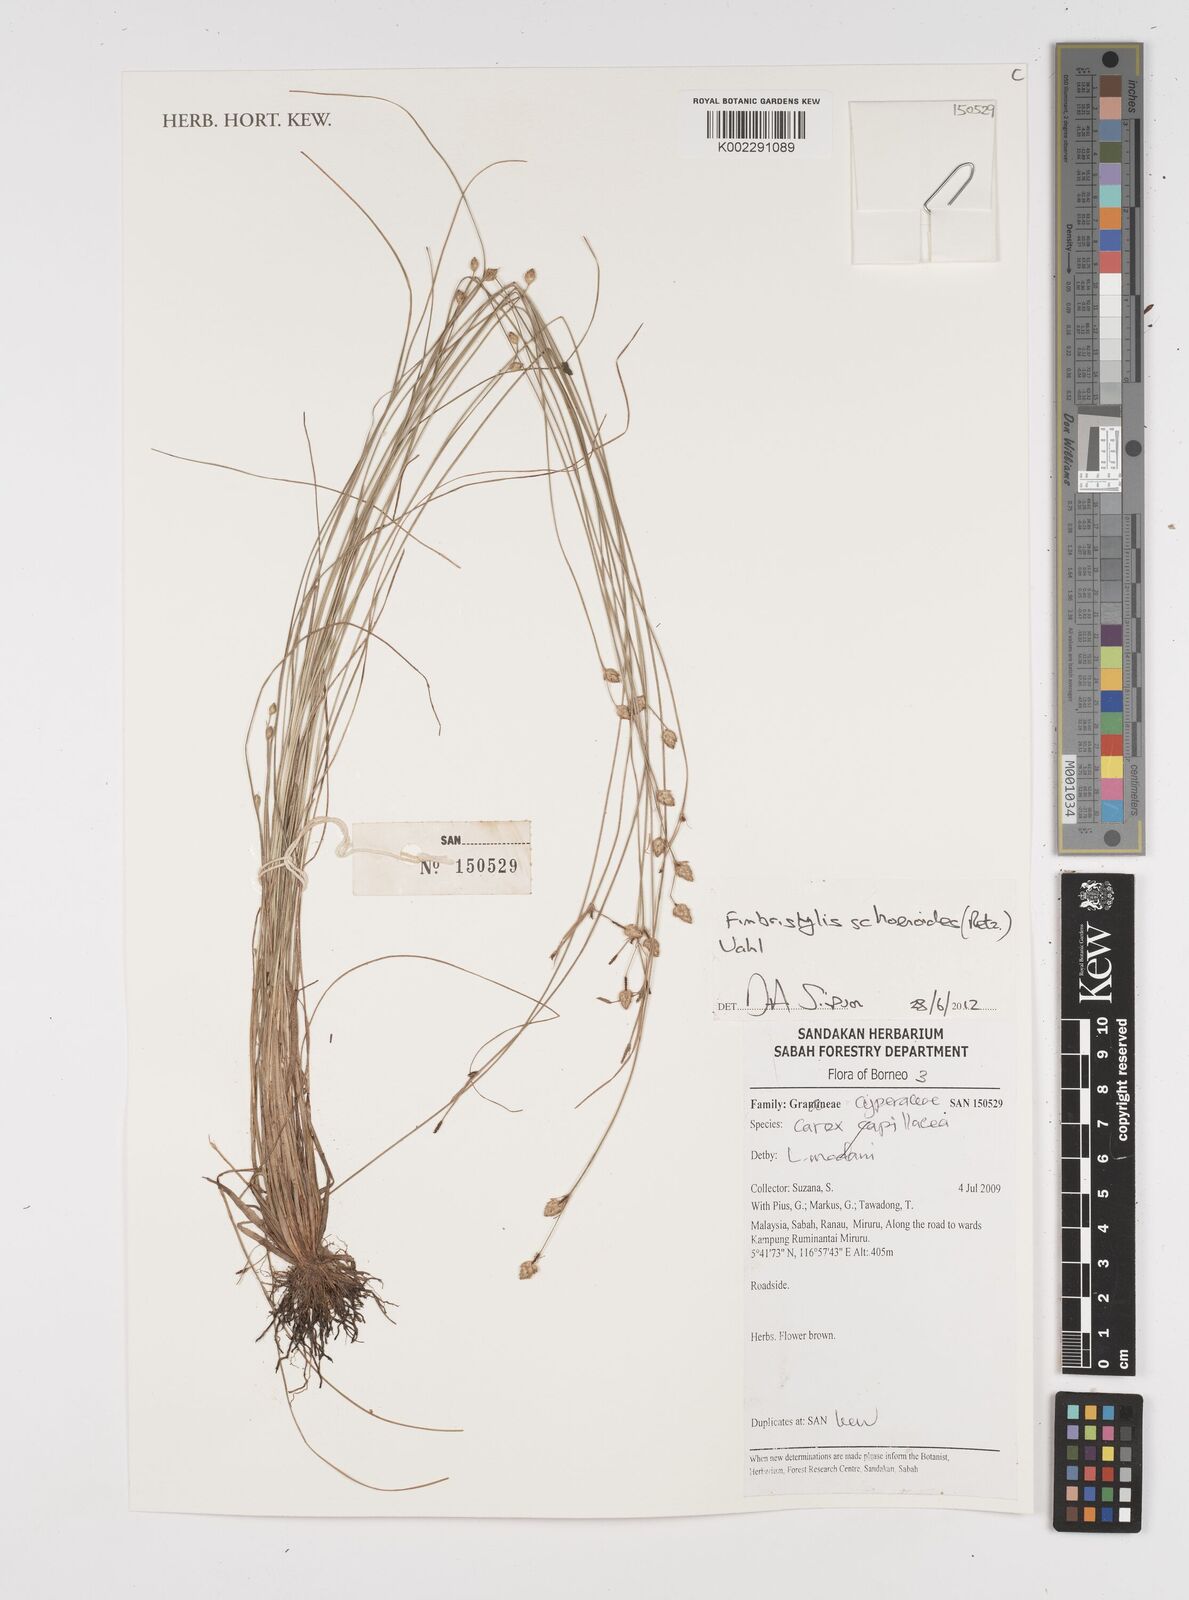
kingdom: Plantae
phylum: Tracheophyta
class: Liliopsida
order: Poales
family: Cyperaceae
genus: Fimbristylis
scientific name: Fimbristylis schoenoides
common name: Ditch fimbry
